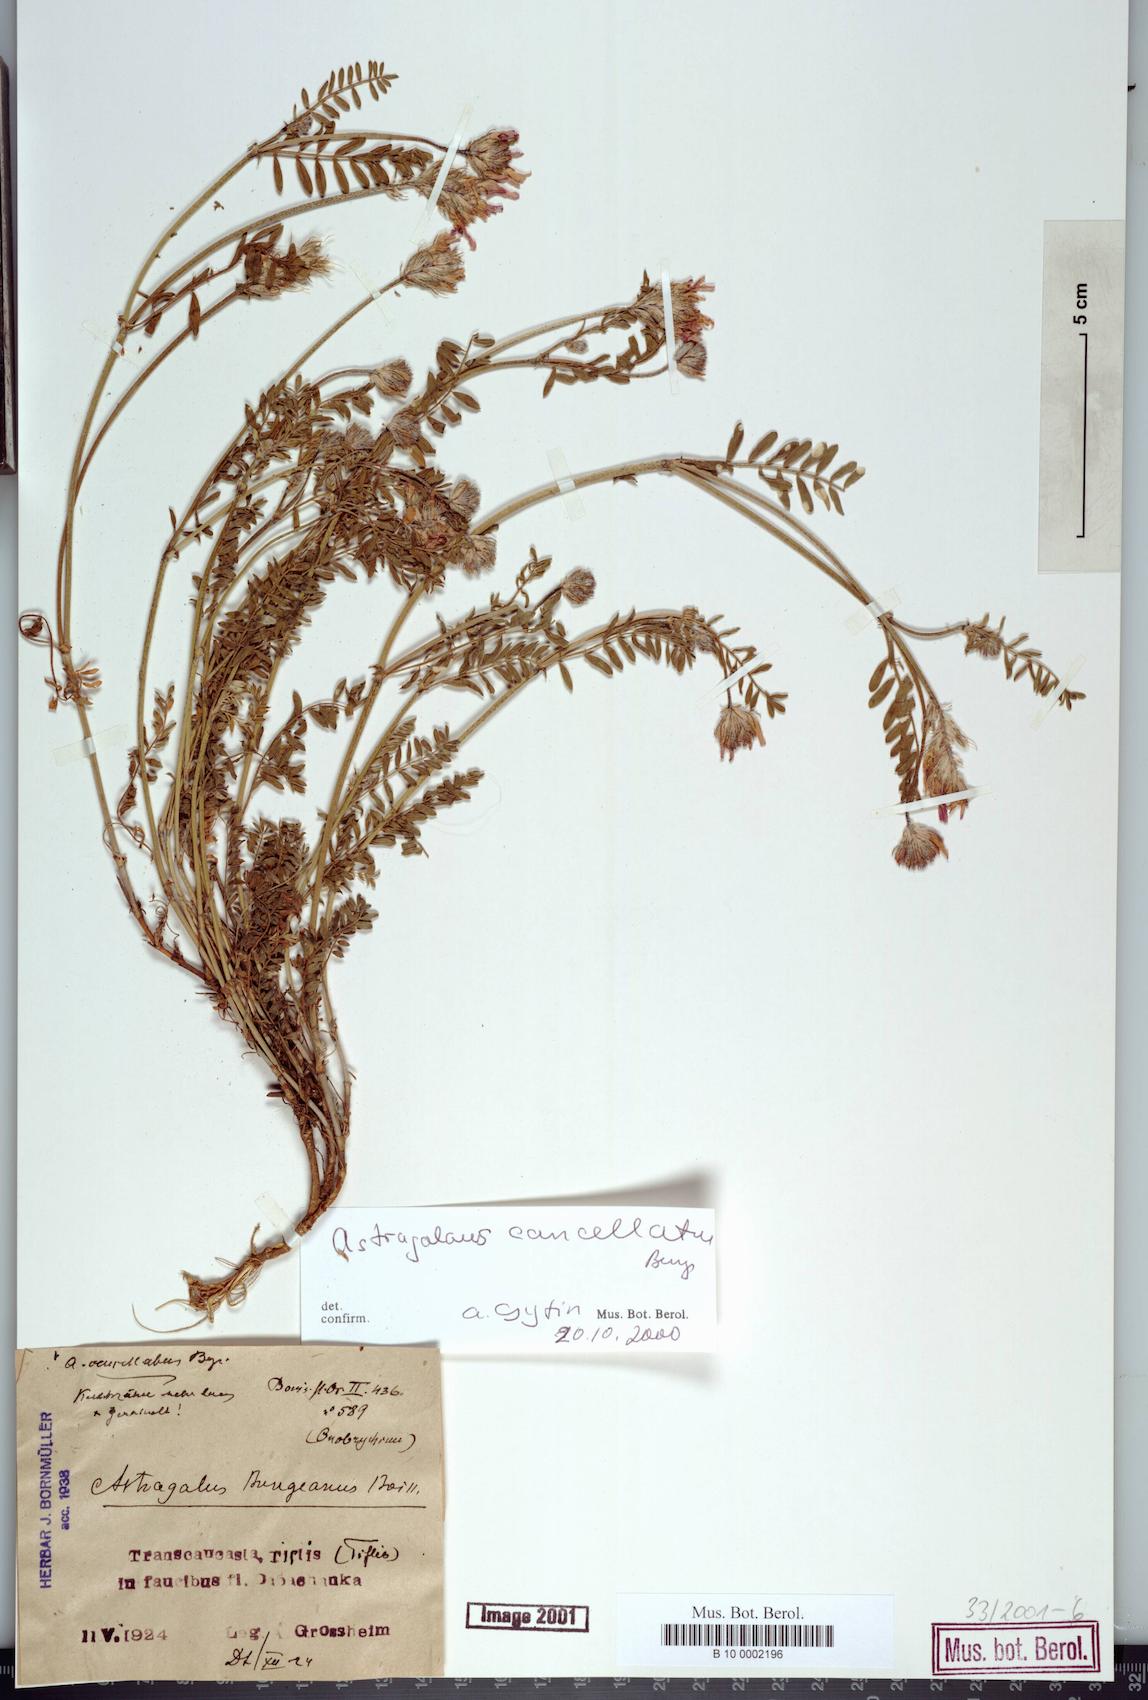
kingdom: Plantae
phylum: Tracheophyta
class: Magnoliopsida
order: Fabales
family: Fabaceae
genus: Astragalus
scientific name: Astragalus cancellatus
